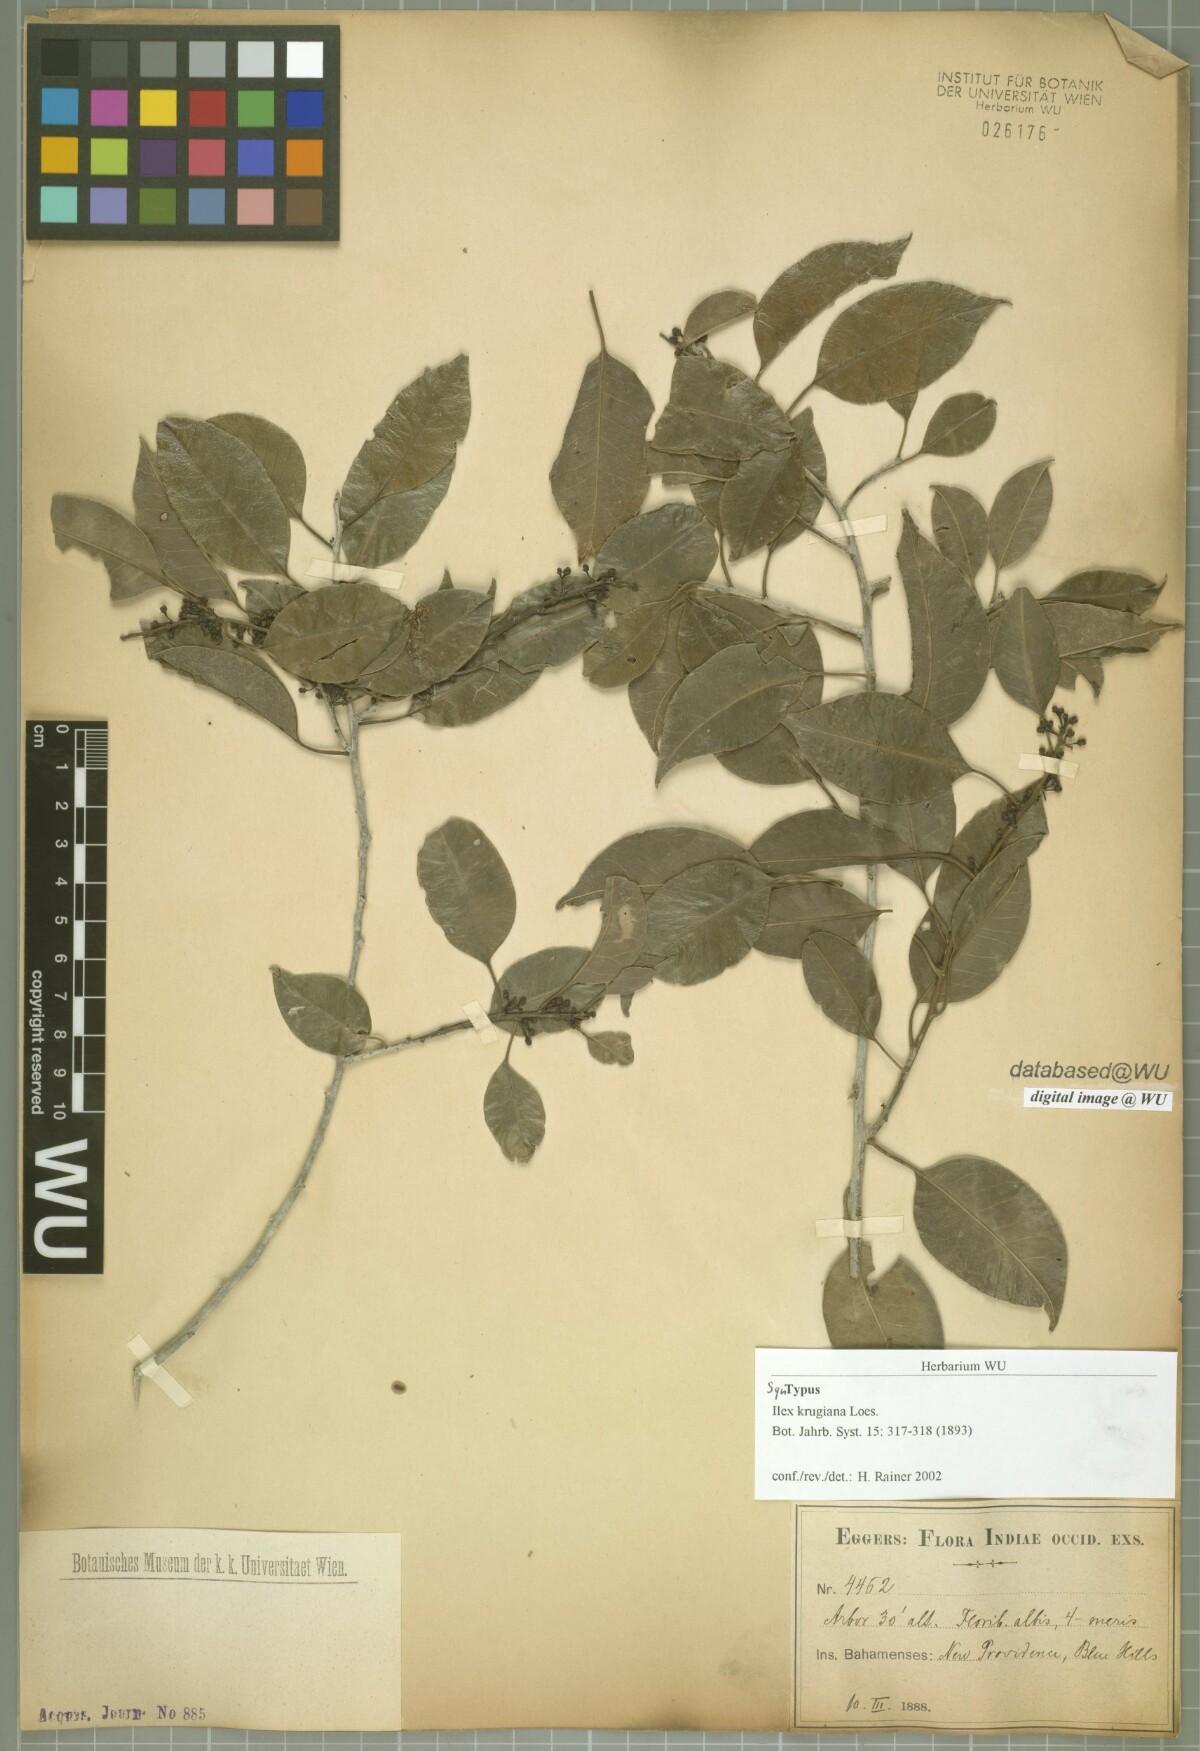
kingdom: Plantae
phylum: Tracheophyta
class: Magnoliopsida
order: Aquifoliales
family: Aquifoliaceae
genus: Ilex
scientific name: Ilex krugiana
